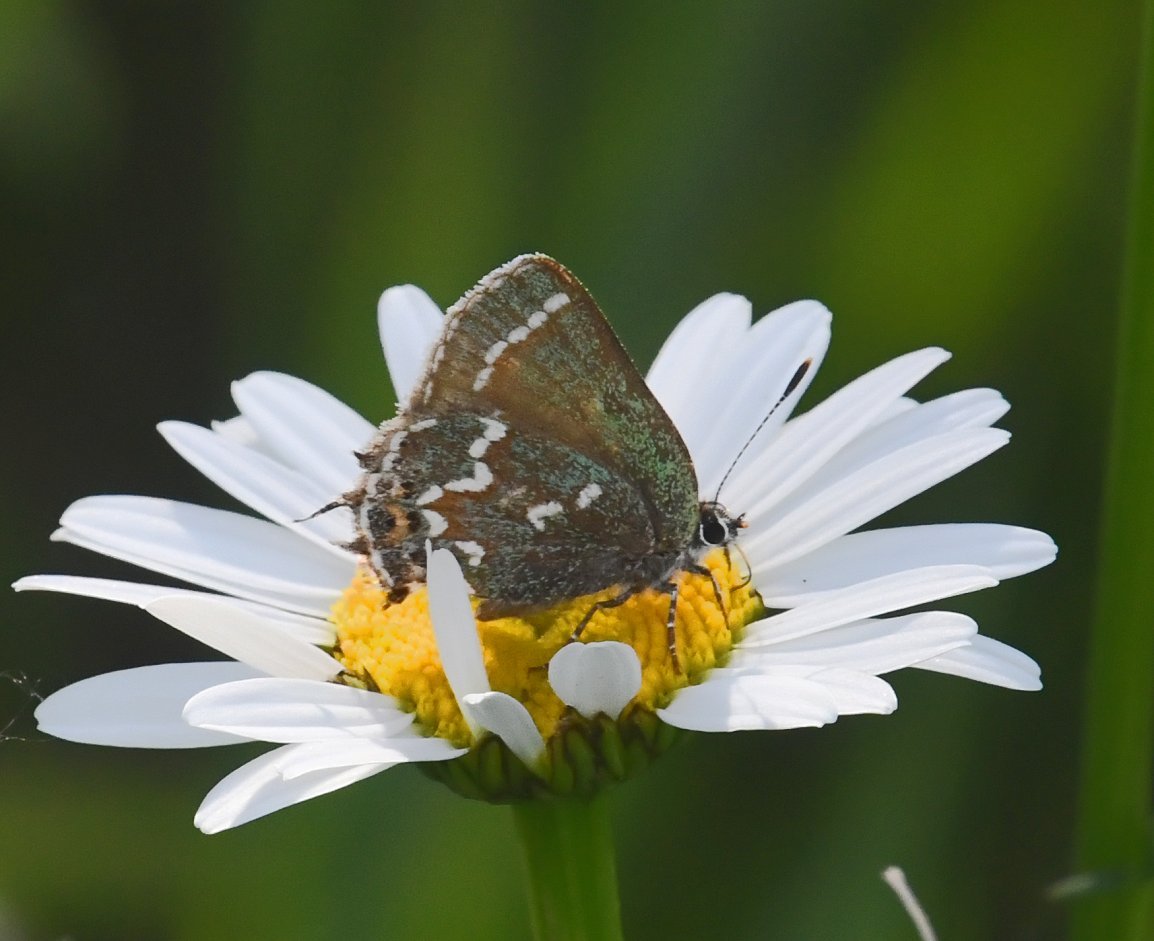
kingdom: Animalia
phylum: Arthropoda
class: Insecta
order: Lepidoptera
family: Lycaenidae
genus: Mitoura
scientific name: Mitoura gryneus
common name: Juniper Hairstreak
